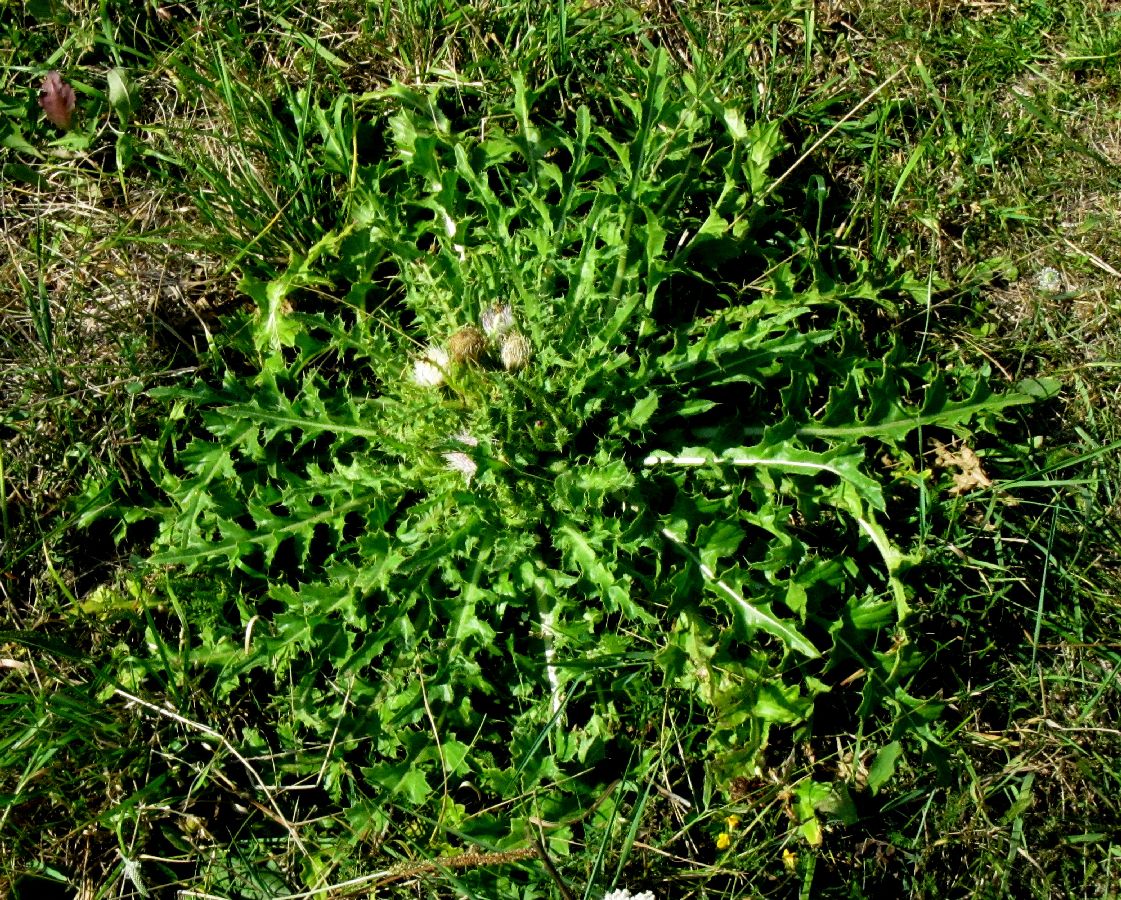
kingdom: Plantae
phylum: Tracheophyta
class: Magnoliopsida
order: Asterales
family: Asteraceae
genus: Cirsium
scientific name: Cirsium esculentum
